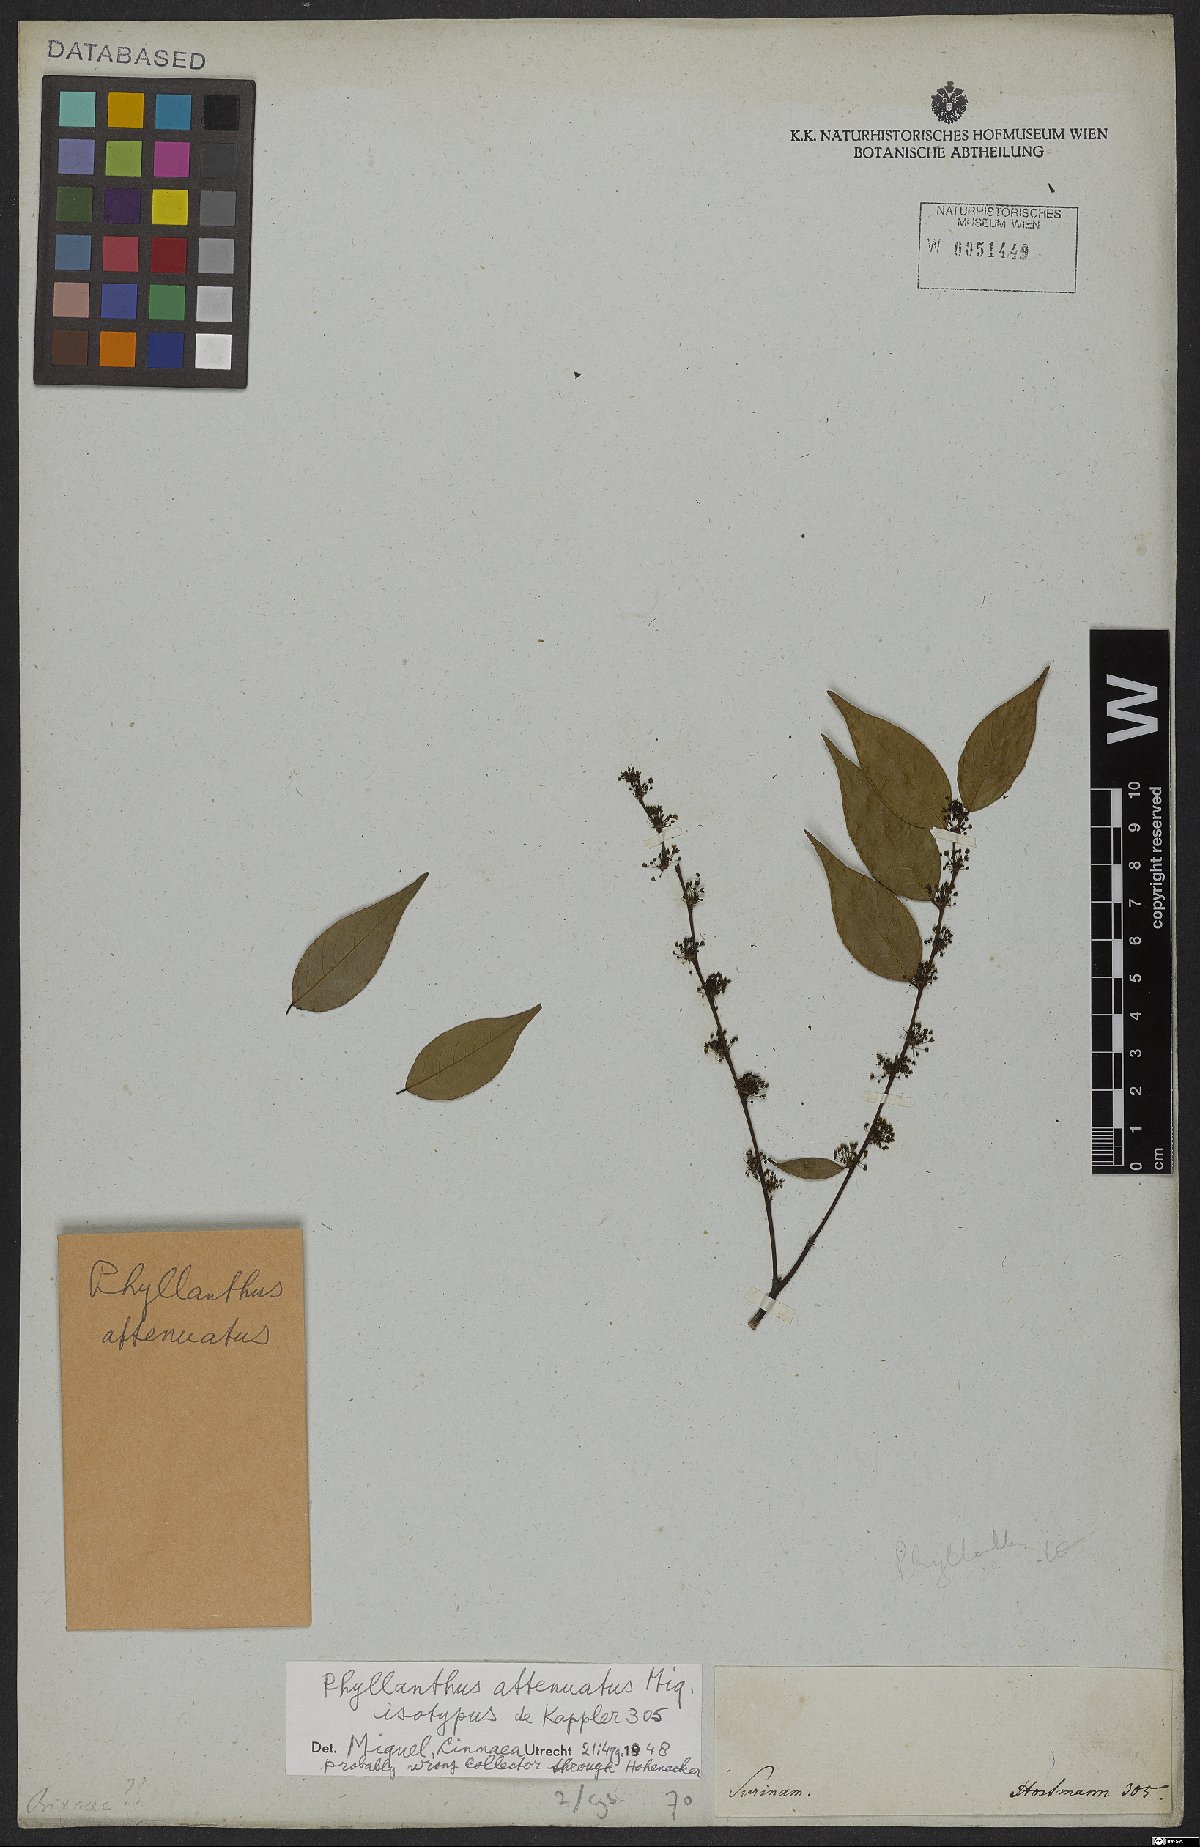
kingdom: Plantae
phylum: Tracheophyta
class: Magnoliopsida
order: Malpighiales
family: Phyllanthaceae
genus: Phyllanthus
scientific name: Phyllanthus attenuatus
